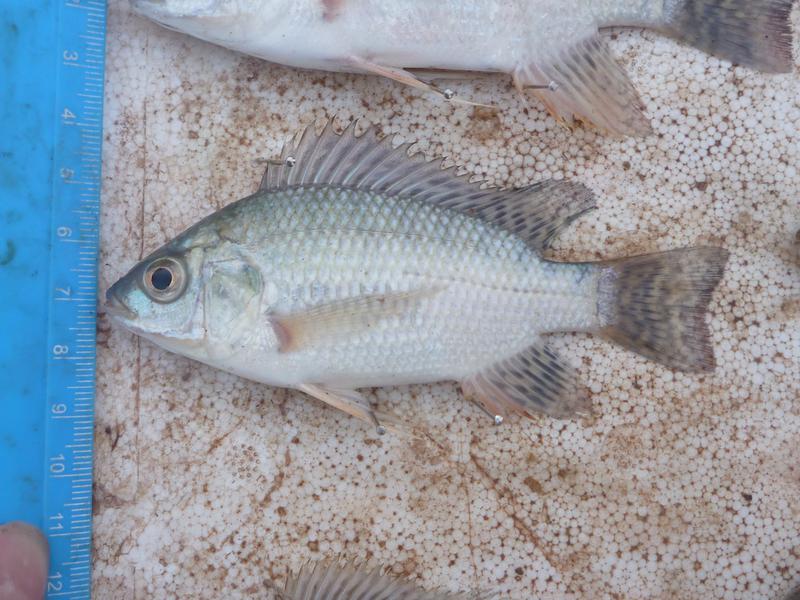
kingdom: Animalia
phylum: Chordata
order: Perciformes
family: Cichlidae
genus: Oreochromis
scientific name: Oreochromis niloticus
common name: Nile tilapia
